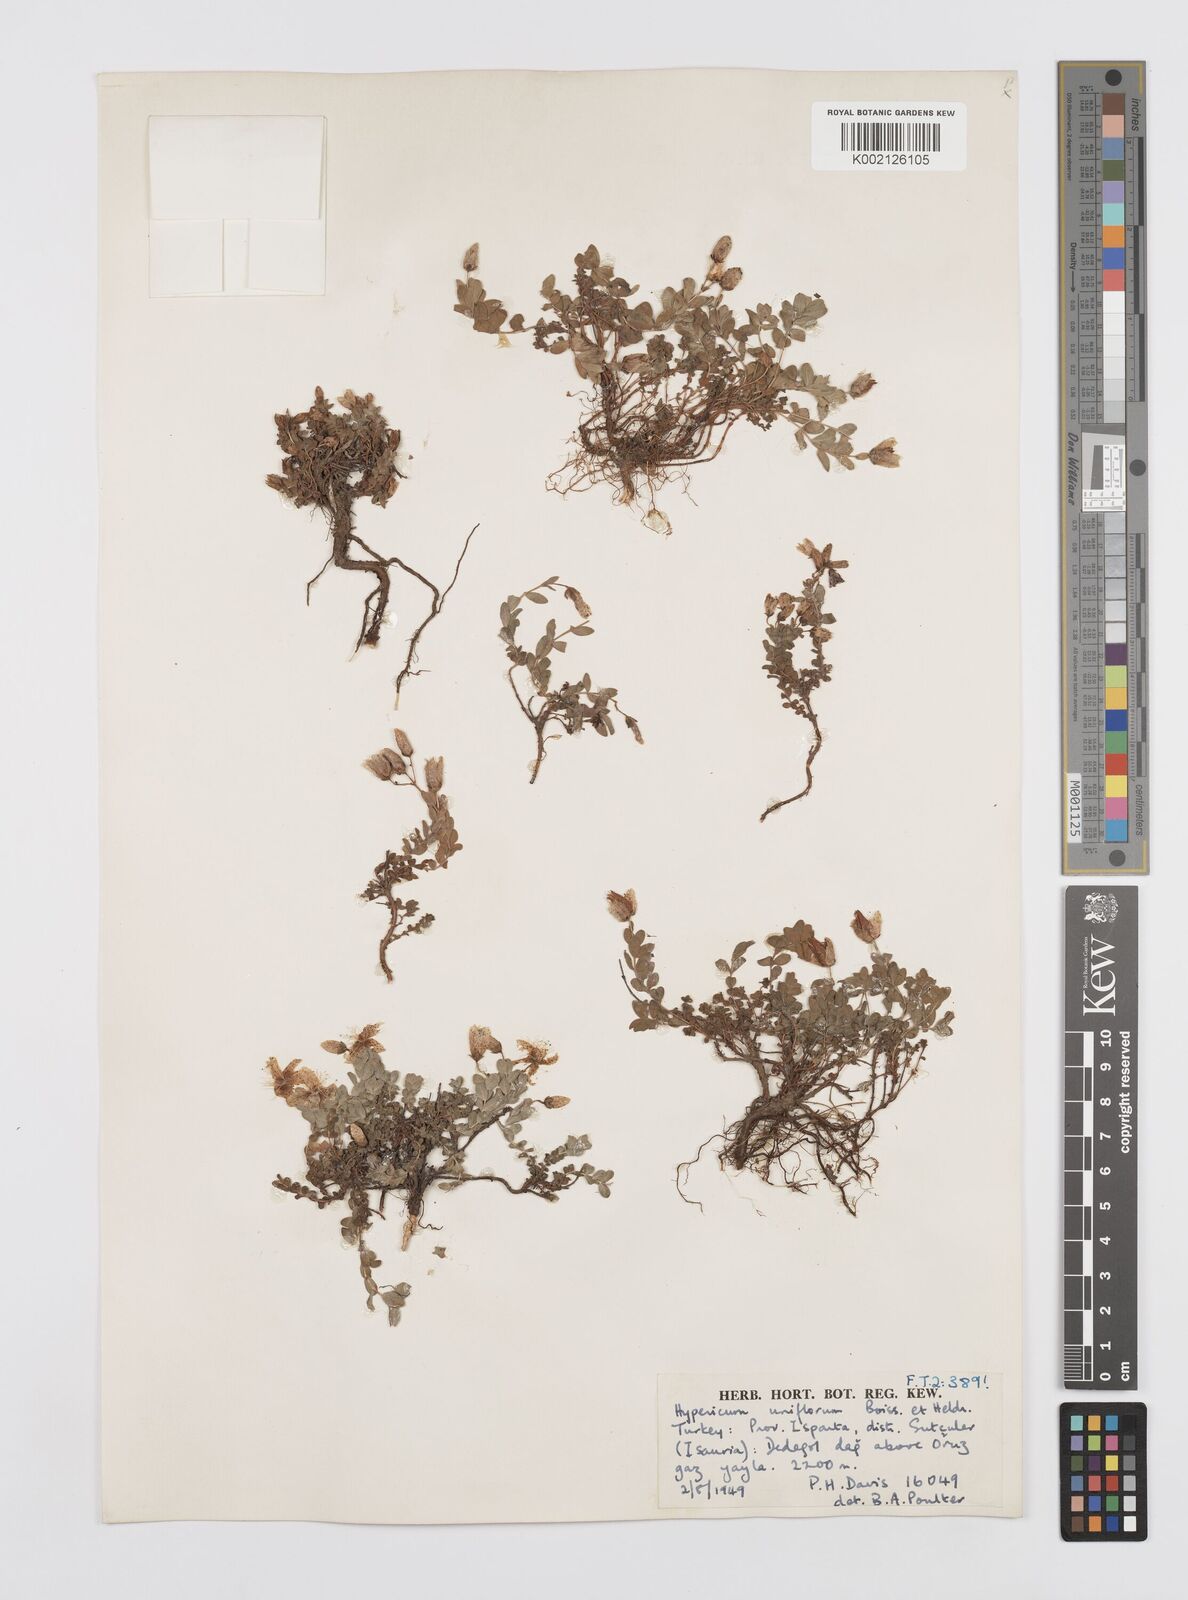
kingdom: Plantae
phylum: Tracheophyta
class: Magnoliopsida
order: Malpighiales
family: Hypericaceae
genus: Hypericum
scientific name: Hypericum uniflorum
